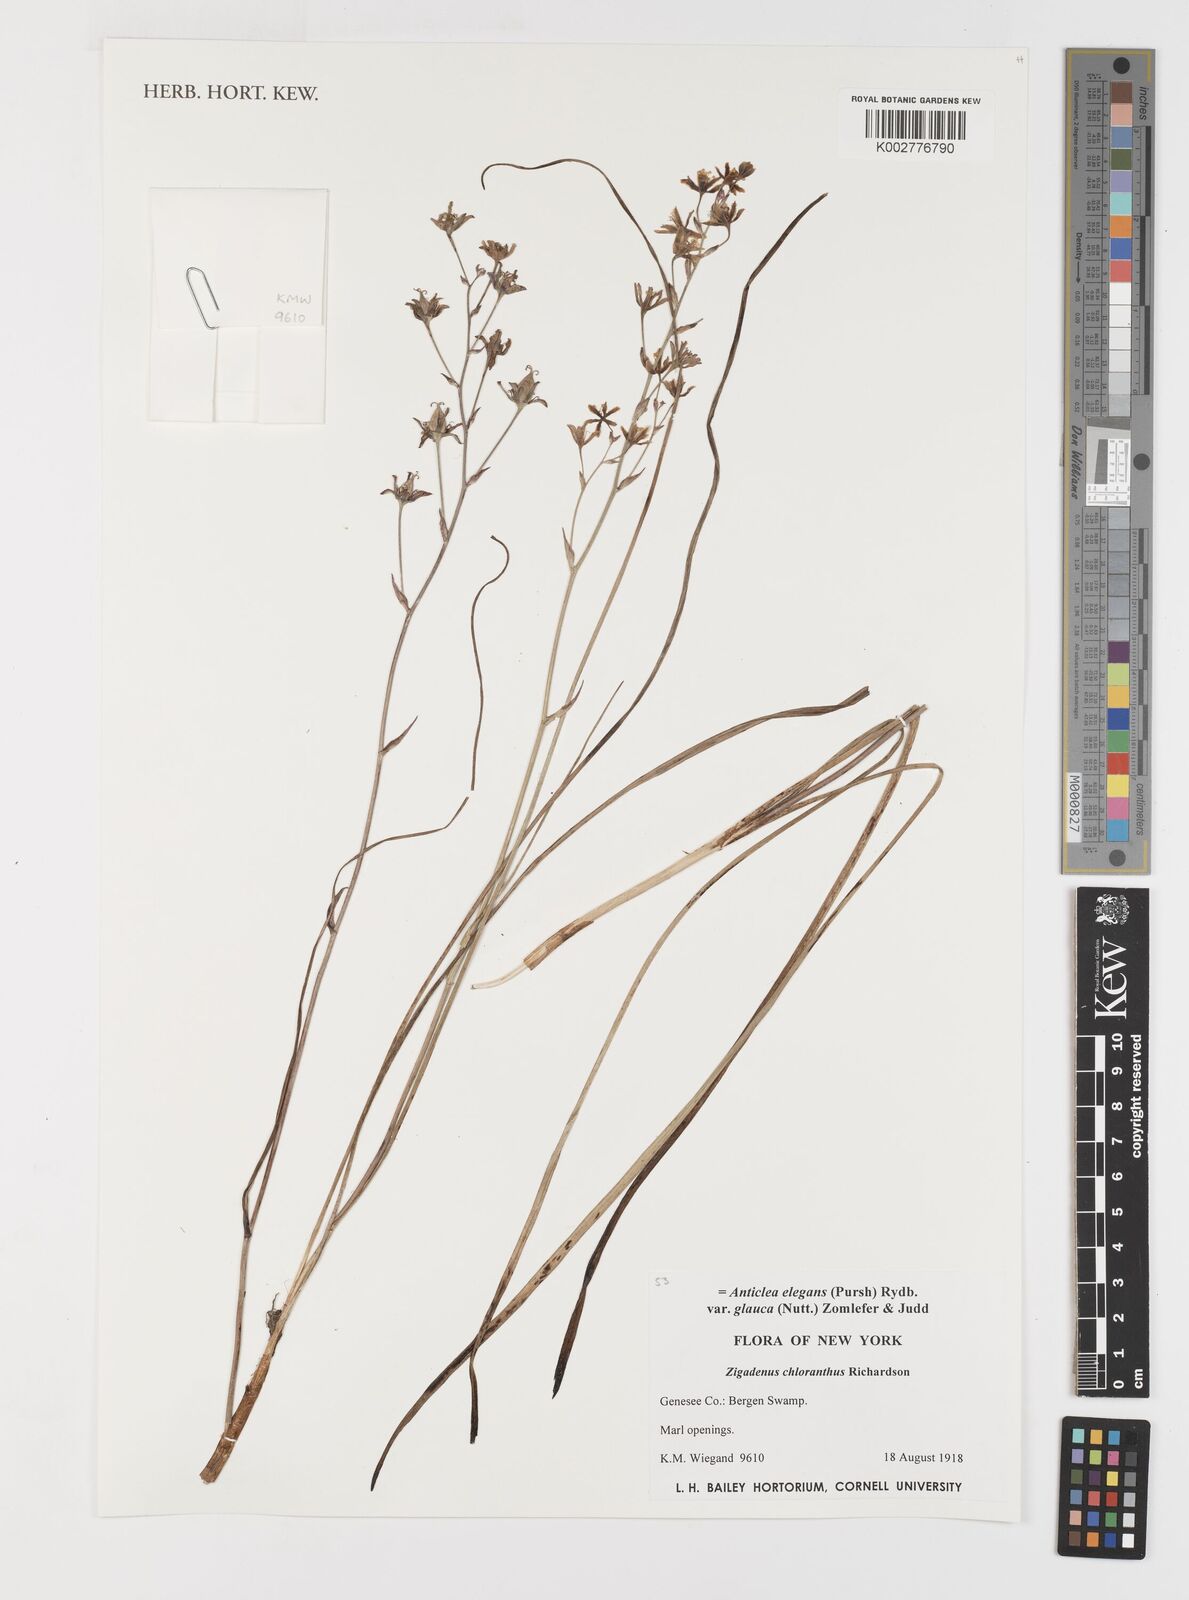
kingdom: Plantae
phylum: Tracheophyta
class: Liliopsida
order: Liliales
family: Melanthiaceae
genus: Anticlea
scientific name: Anticlea elegans
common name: Mountain death camas
